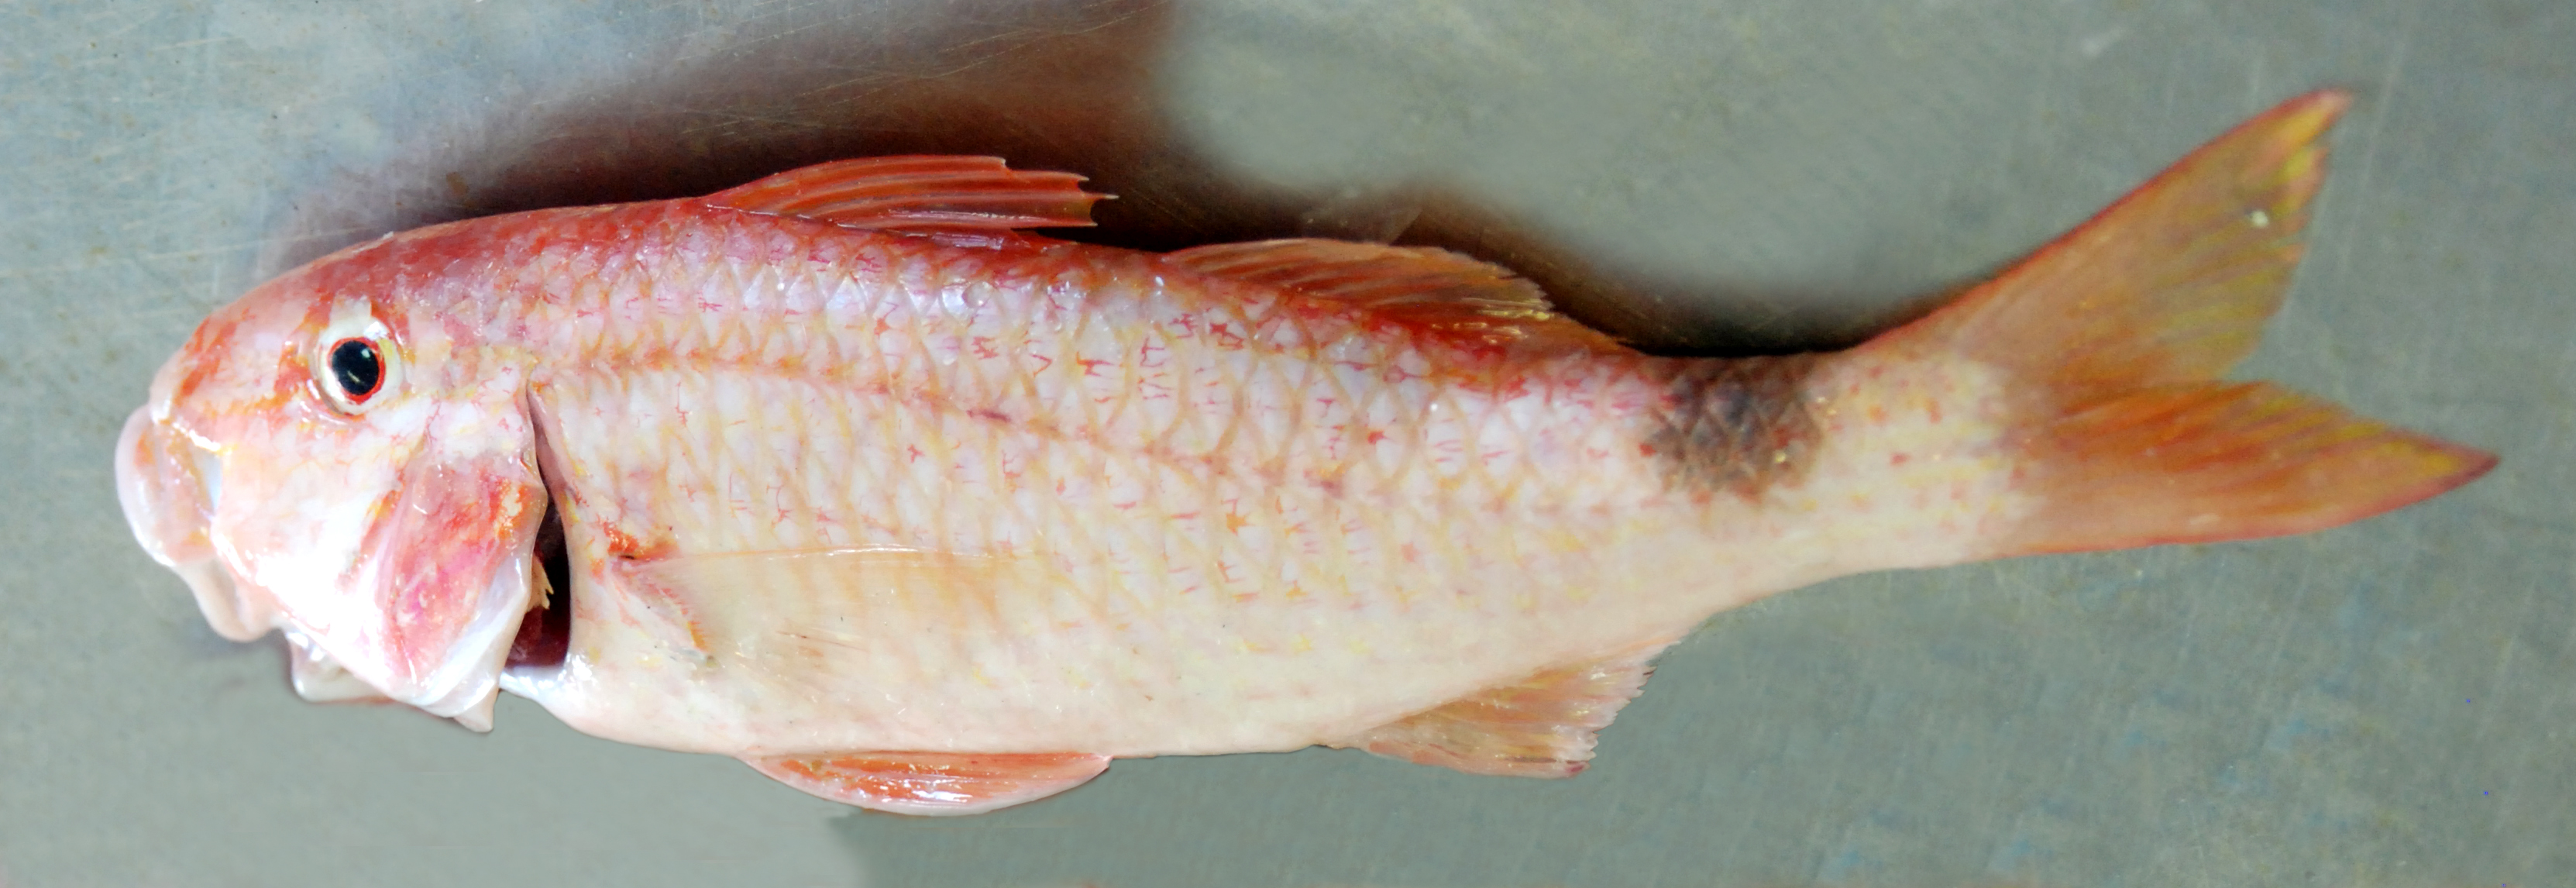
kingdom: Animalia
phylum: Chordata
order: Perciformes
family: Mullidae
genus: Parupeneus
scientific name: Parupeneus rubescens
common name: Rosy goatfish
